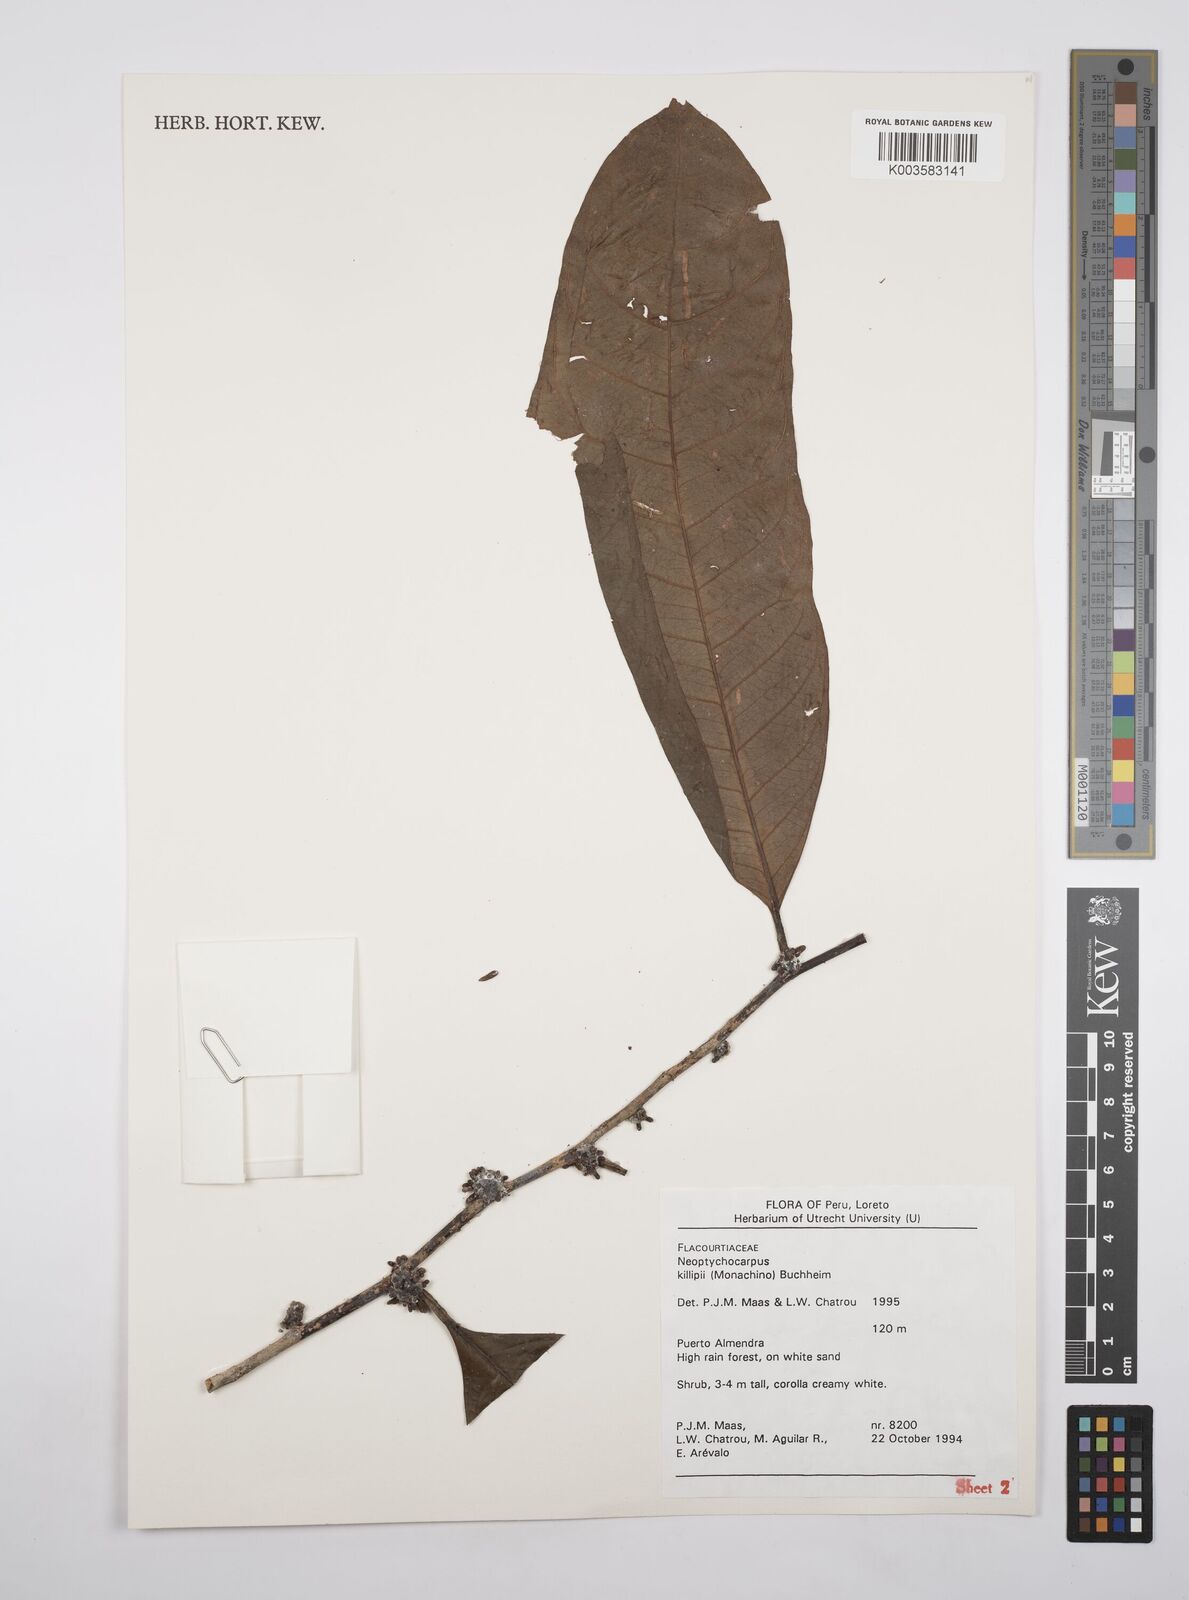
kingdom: Plantae
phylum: Tracheophyta
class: Magnoliopsida
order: Malpighiales
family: Salicaceae
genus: Casearia
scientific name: Casearia killipii
